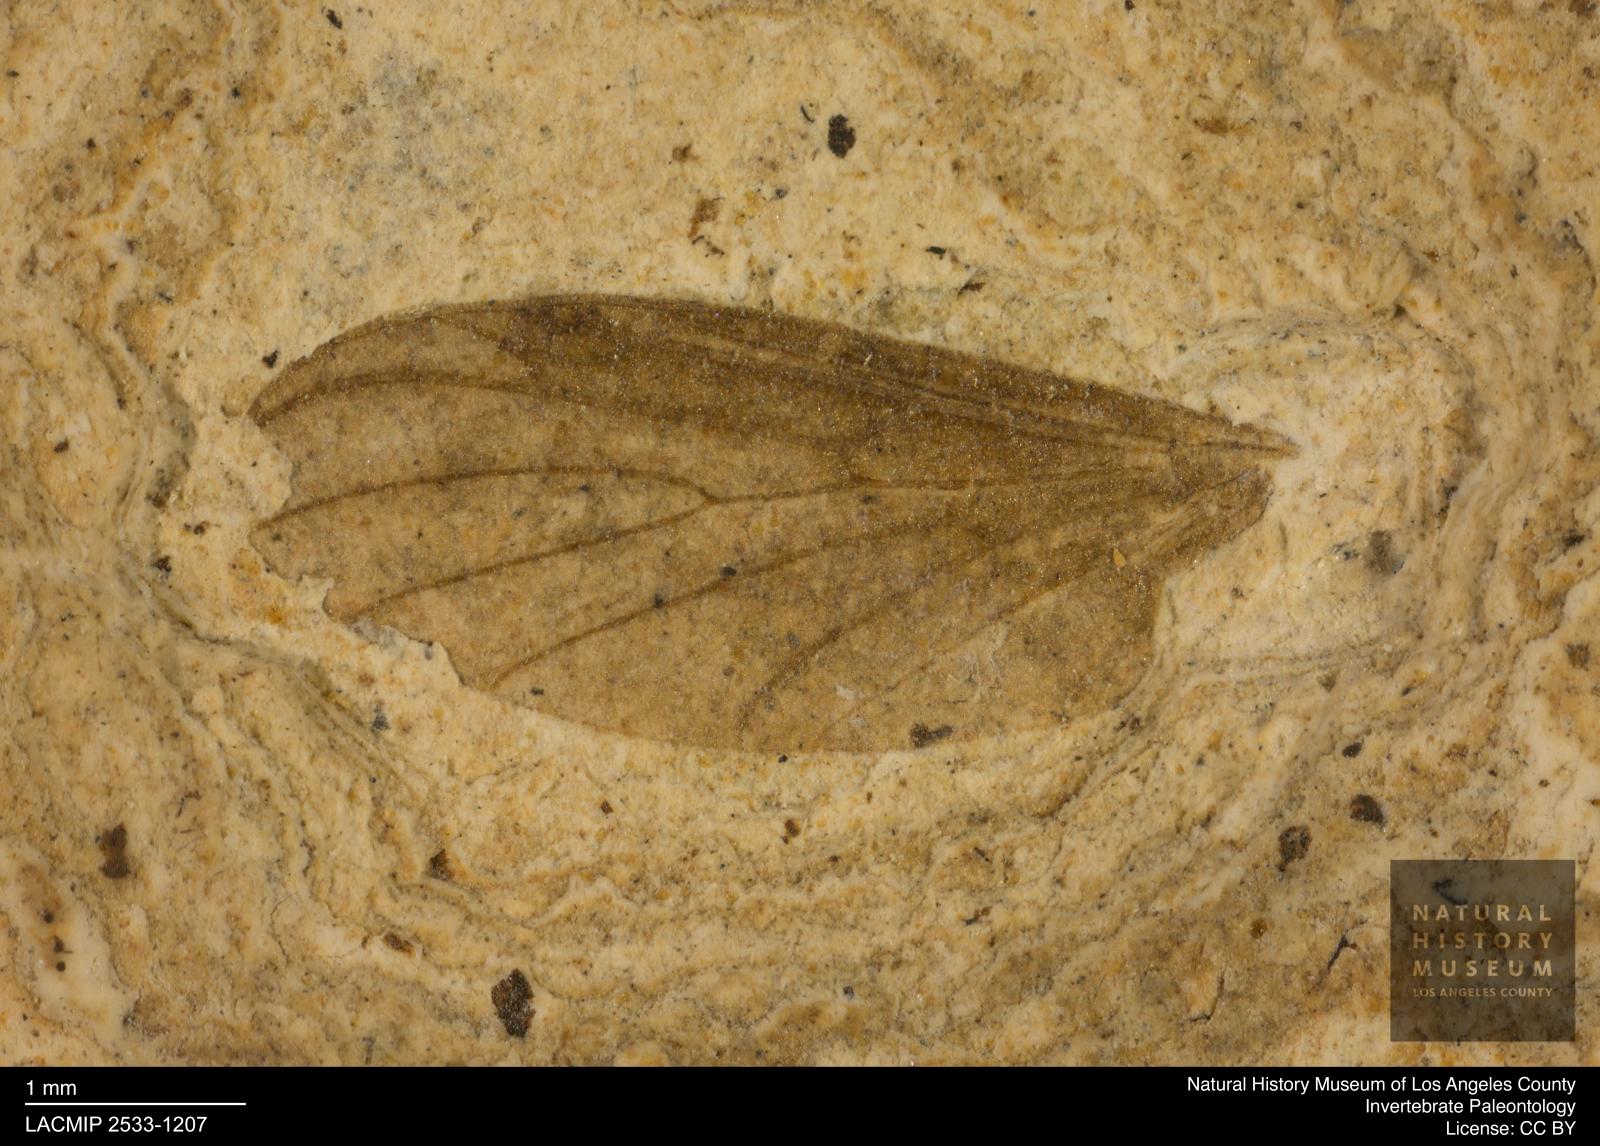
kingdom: Animalia
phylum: Arthropoda
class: Insecta
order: Diptera
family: Bibionidae
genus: Plecia
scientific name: Plecia pinguis
